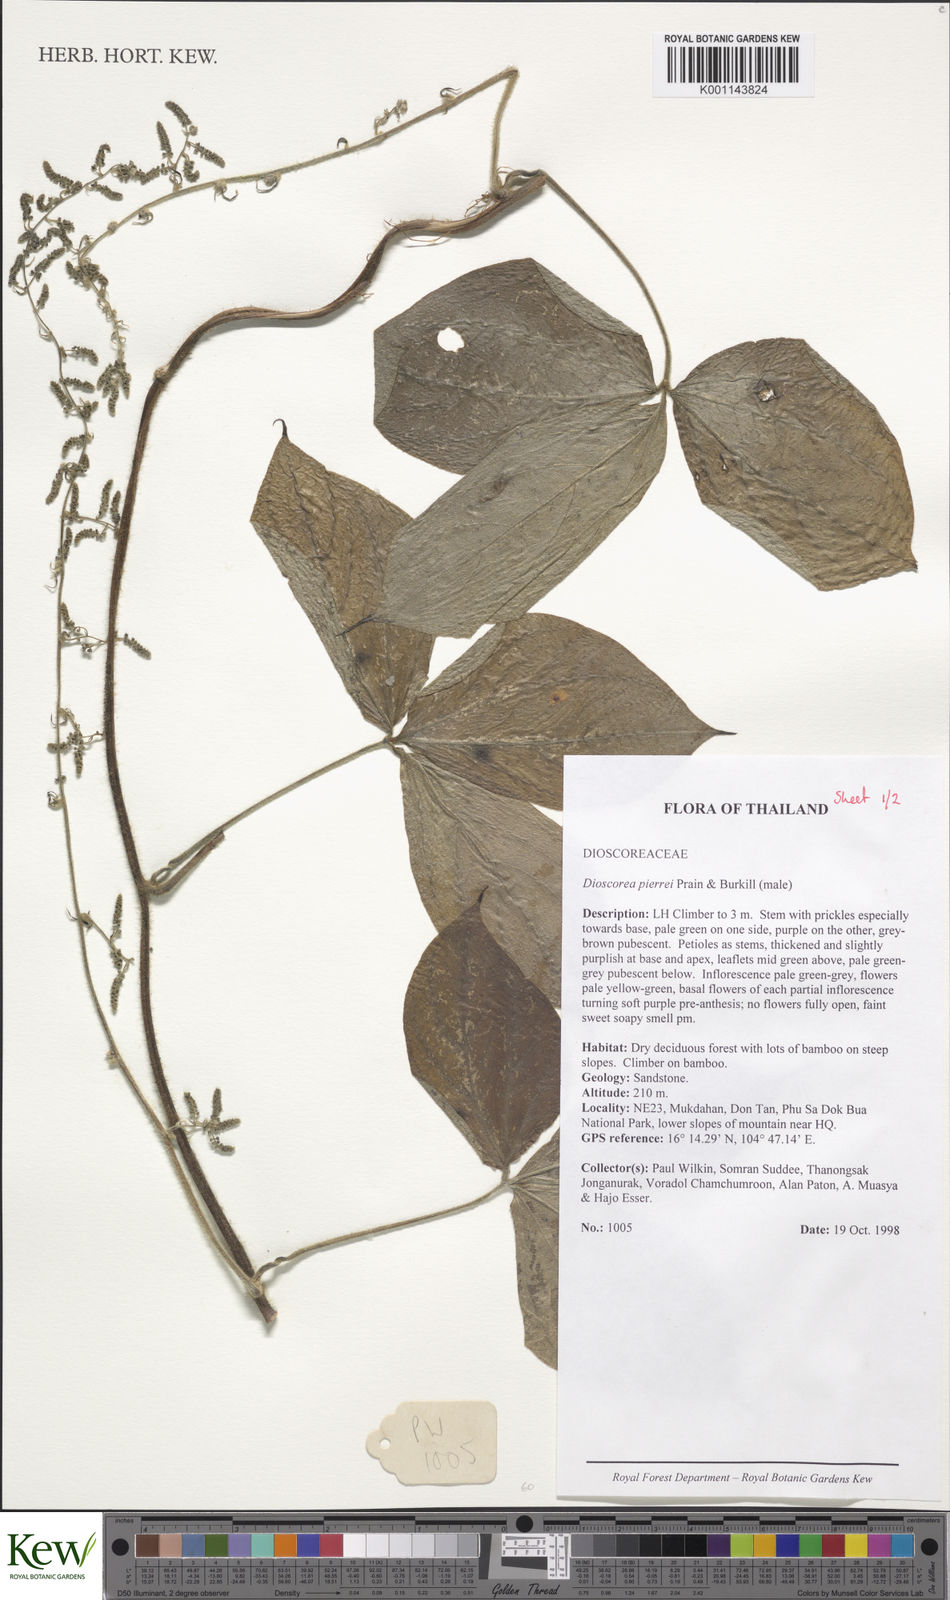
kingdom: Plantae
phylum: Tracheophyta
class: Liliopsida
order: Dioscoreales
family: Dioscoreaceae
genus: Dioscorea
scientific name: Dioscorea pierrei
